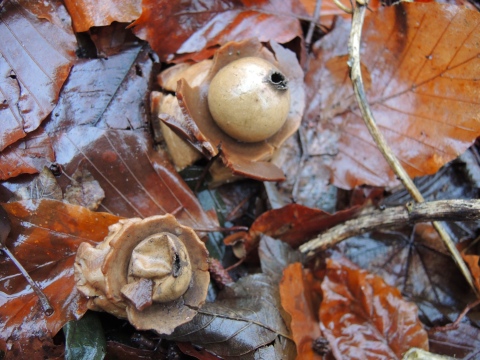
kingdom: Fungi
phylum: Basidiomycota
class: Agaricomycetes
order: Geastrales
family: Geastraceae
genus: Geastrum
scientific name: Geastrum michelianum
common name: kødet stjernebold
